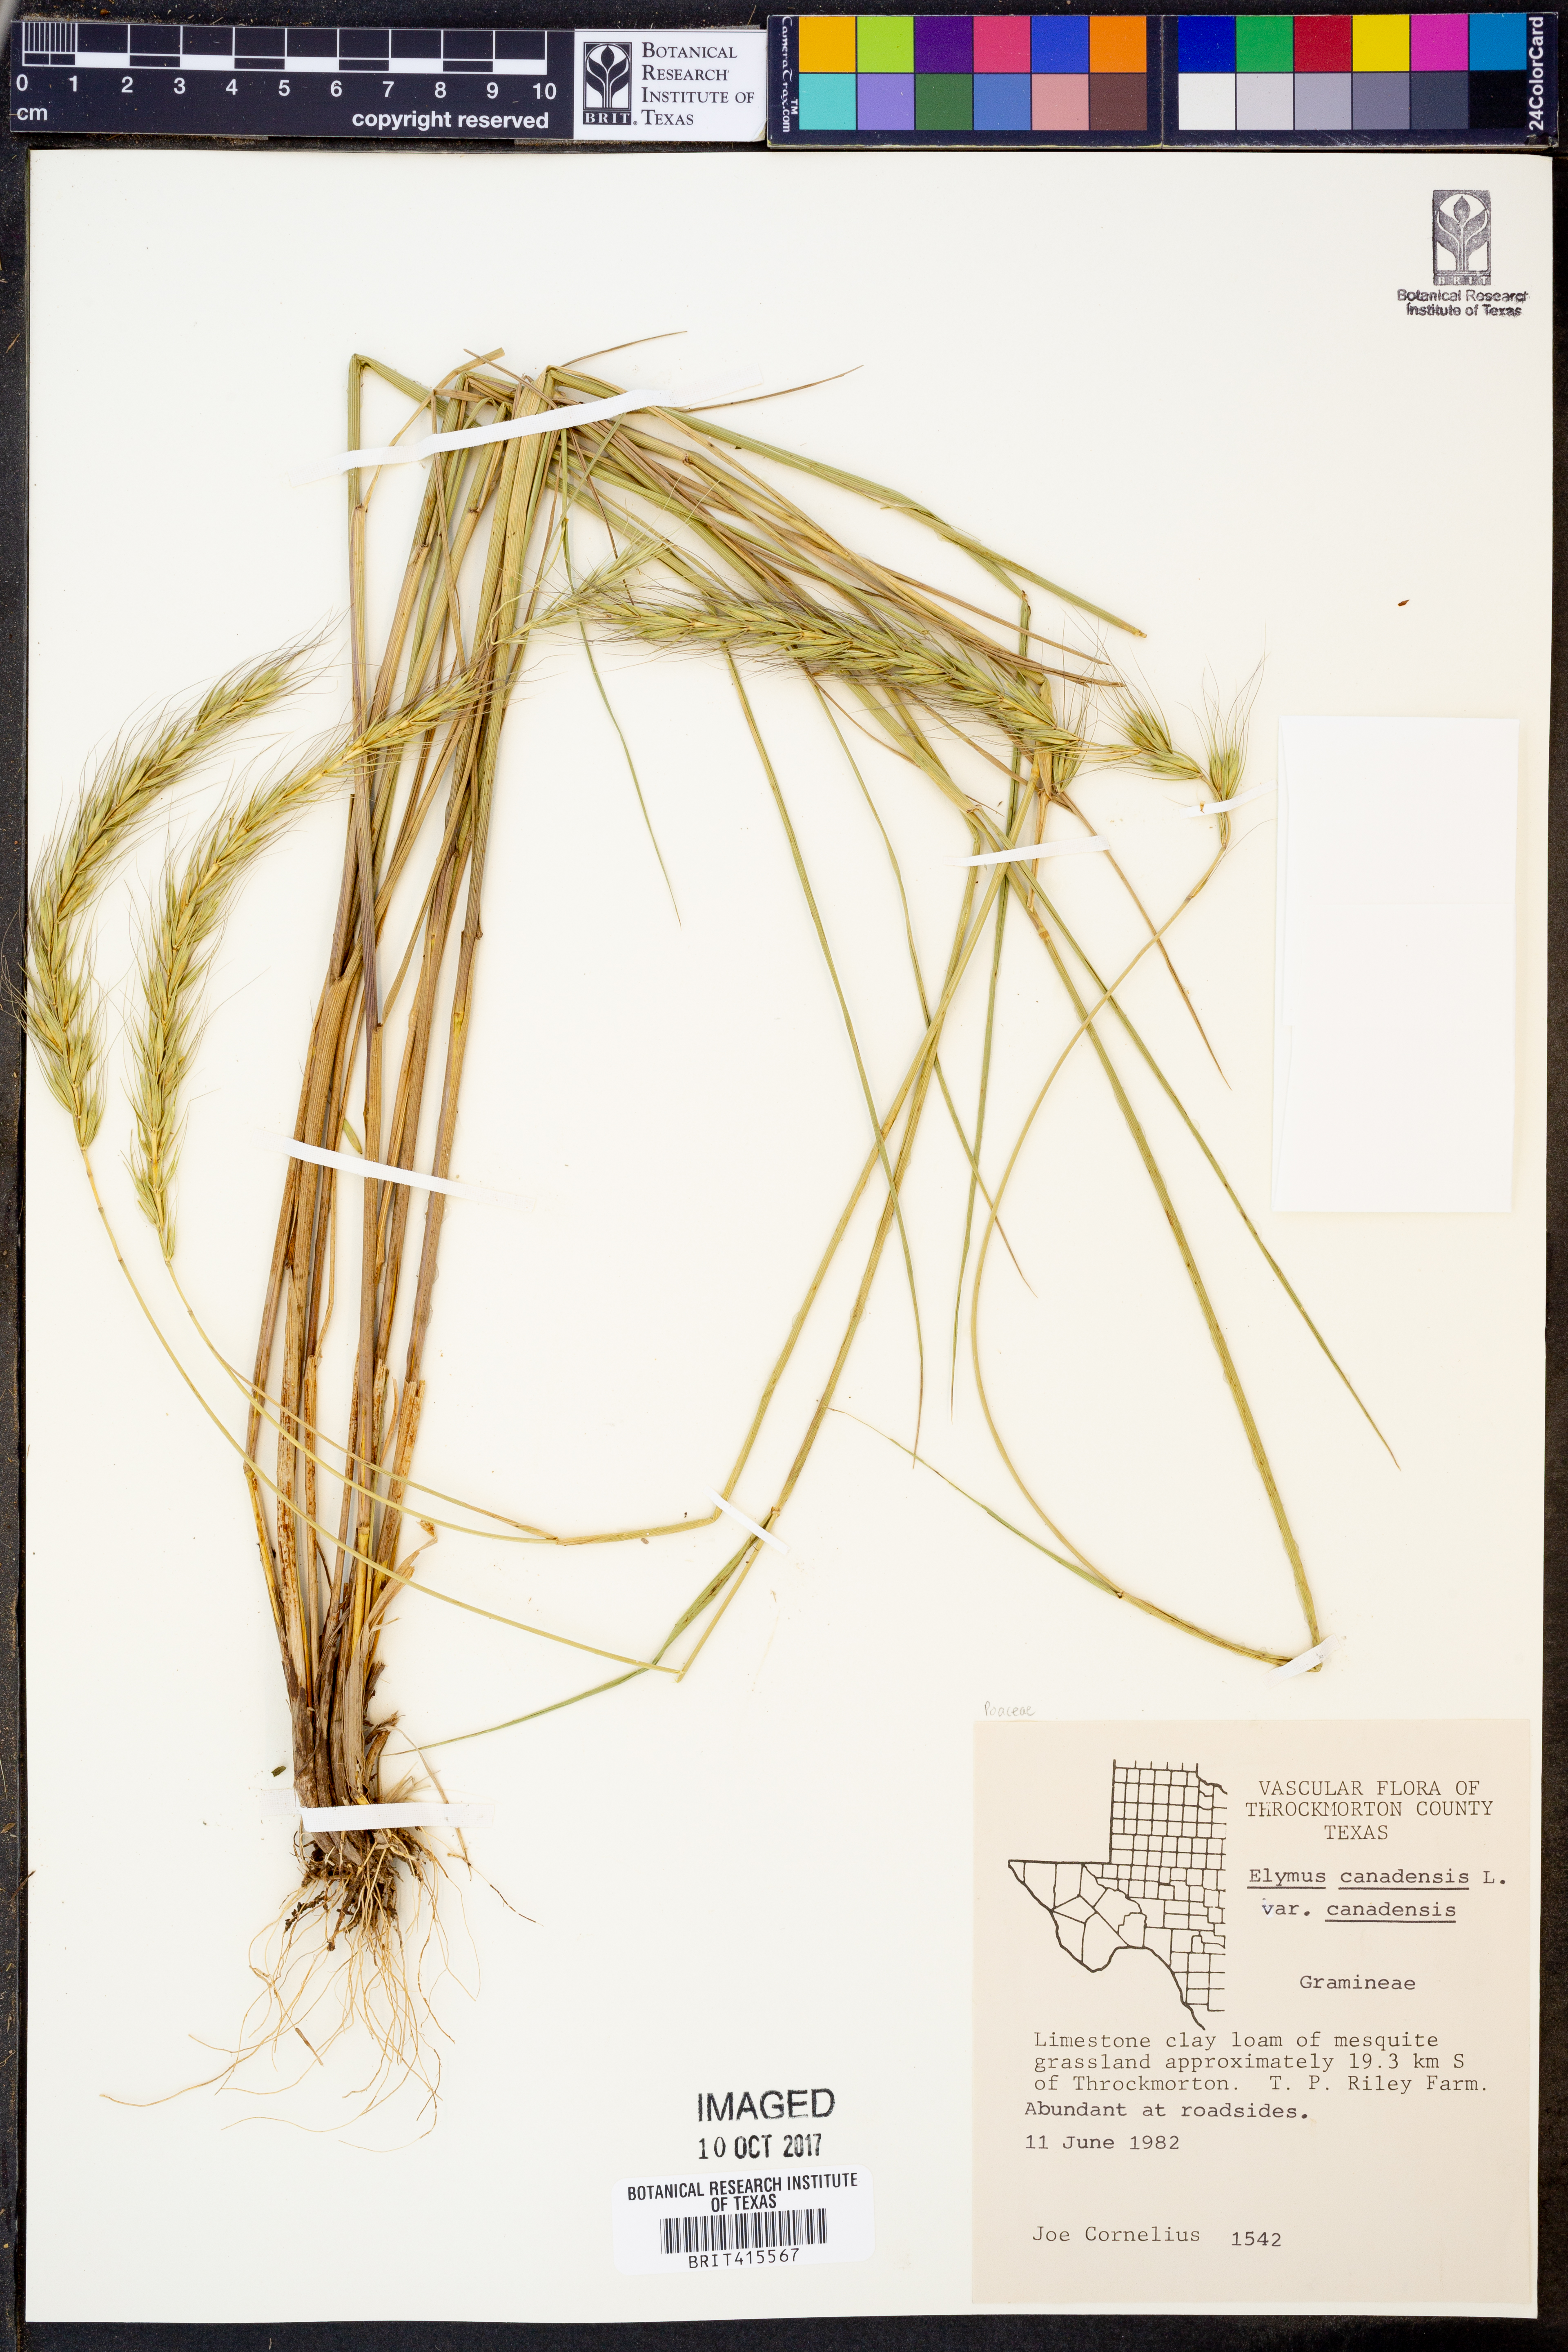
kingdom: Plantae
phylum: Tracheophyta
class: Liliopsida
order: Poales
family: Poaceae
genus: Elymus
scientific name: Elymus canadensis
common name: Canada wild rye
